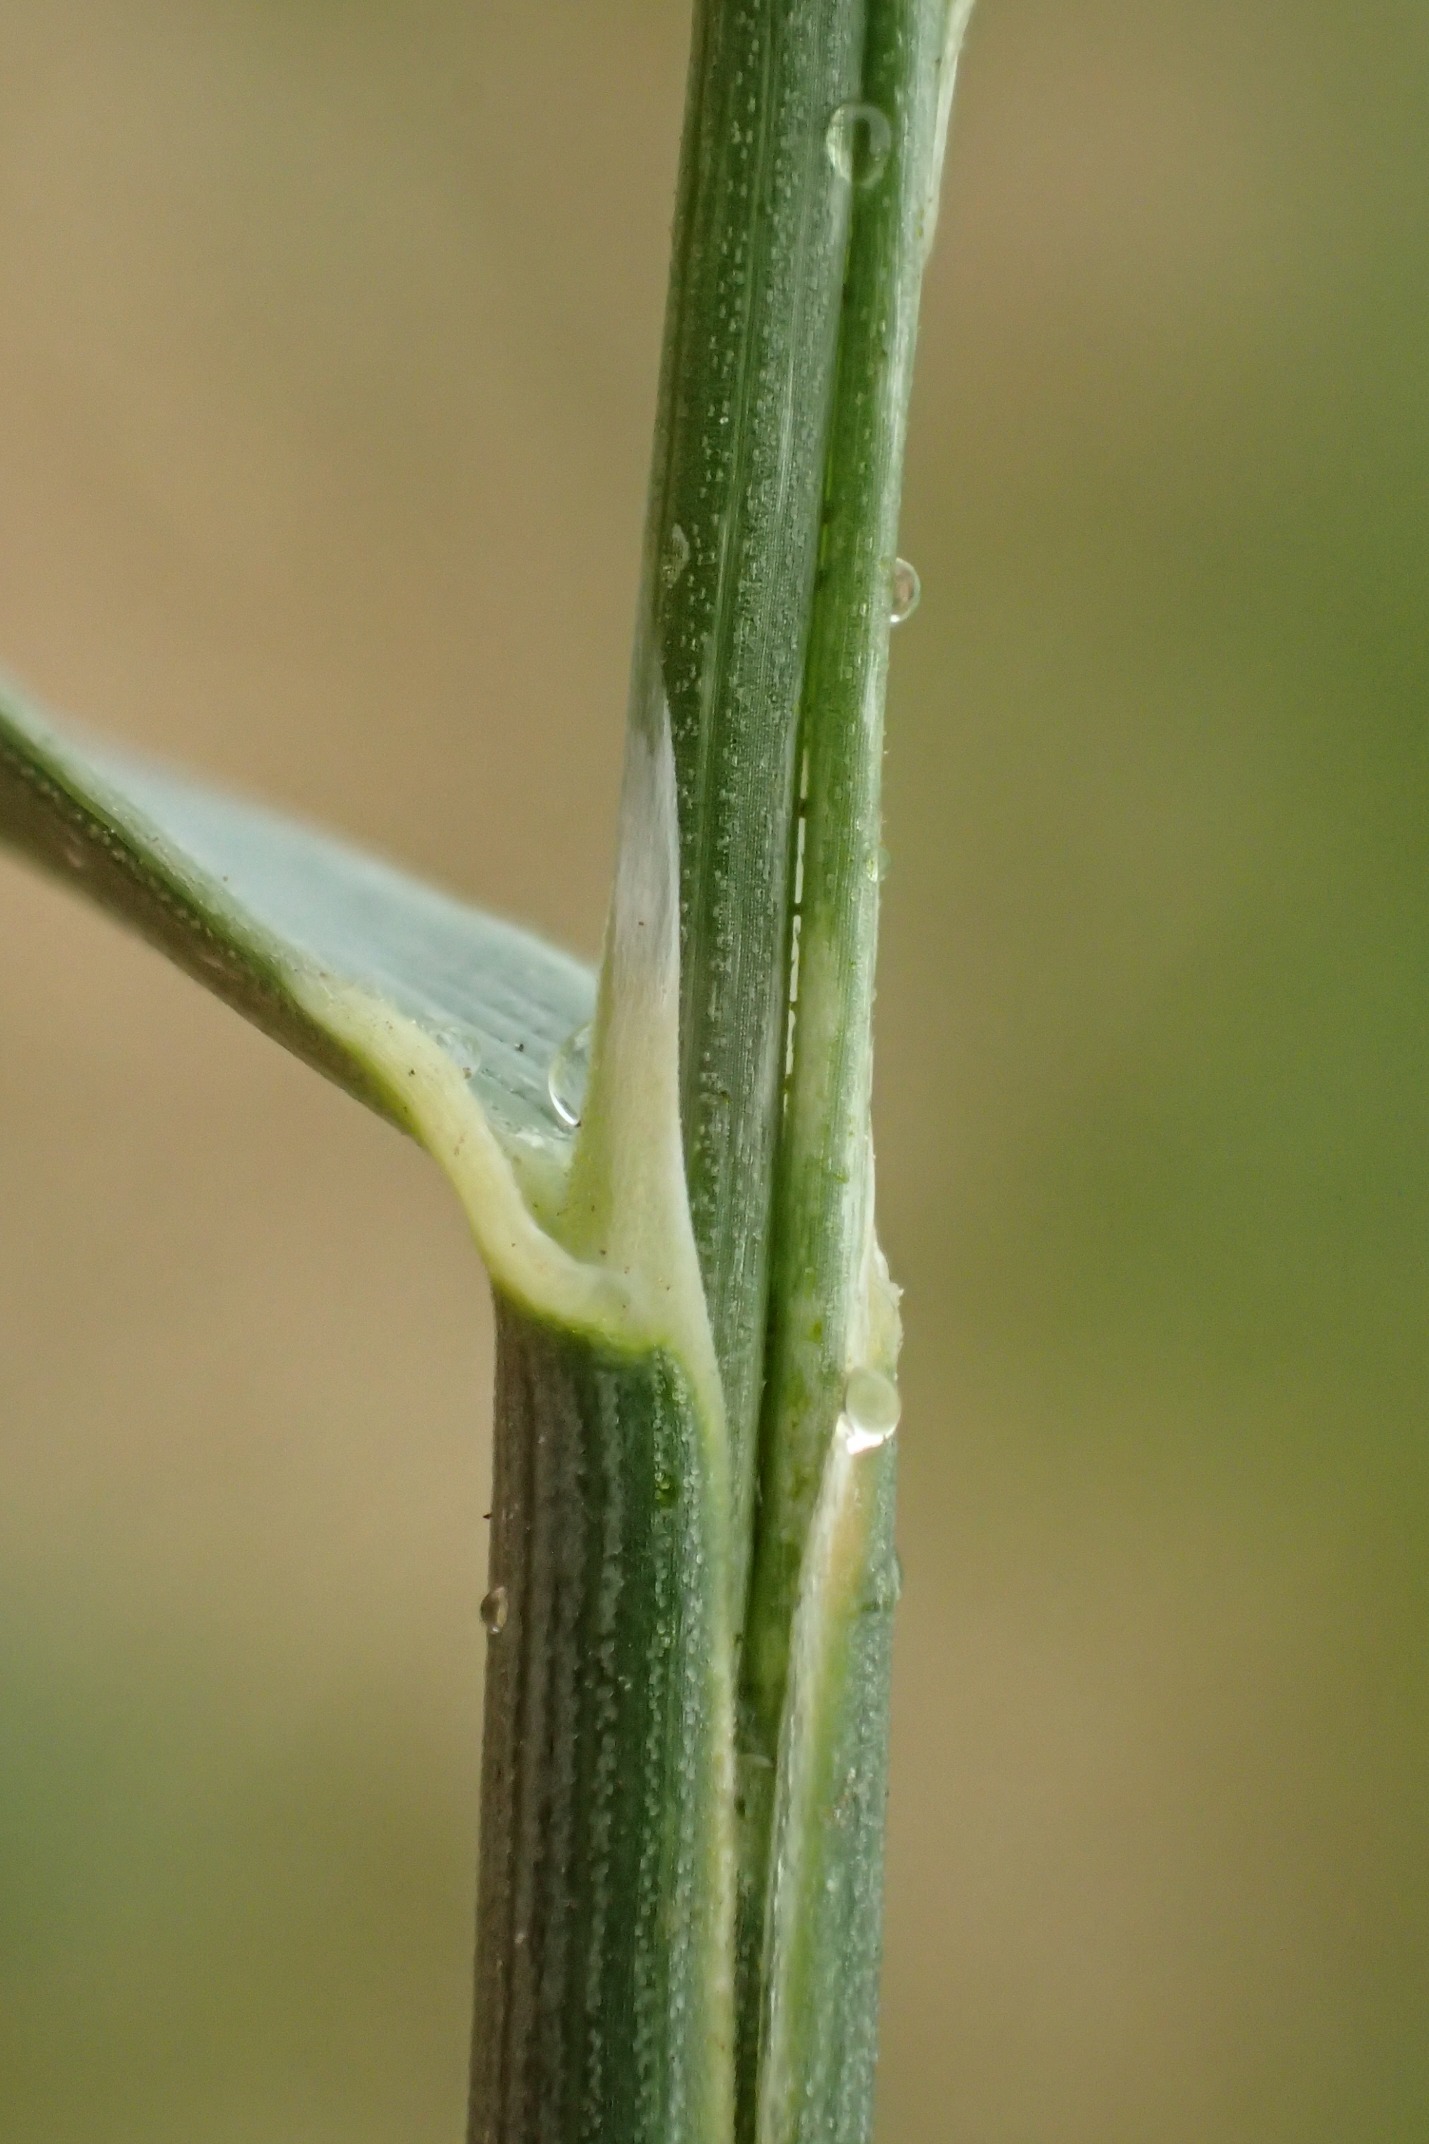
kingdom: Plantae
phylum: Tracheophyta
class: Liliopsida
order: Poales
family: Poaceae
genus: Helictochloa
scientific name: Helictochloa pratensis
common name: Eng-havre
